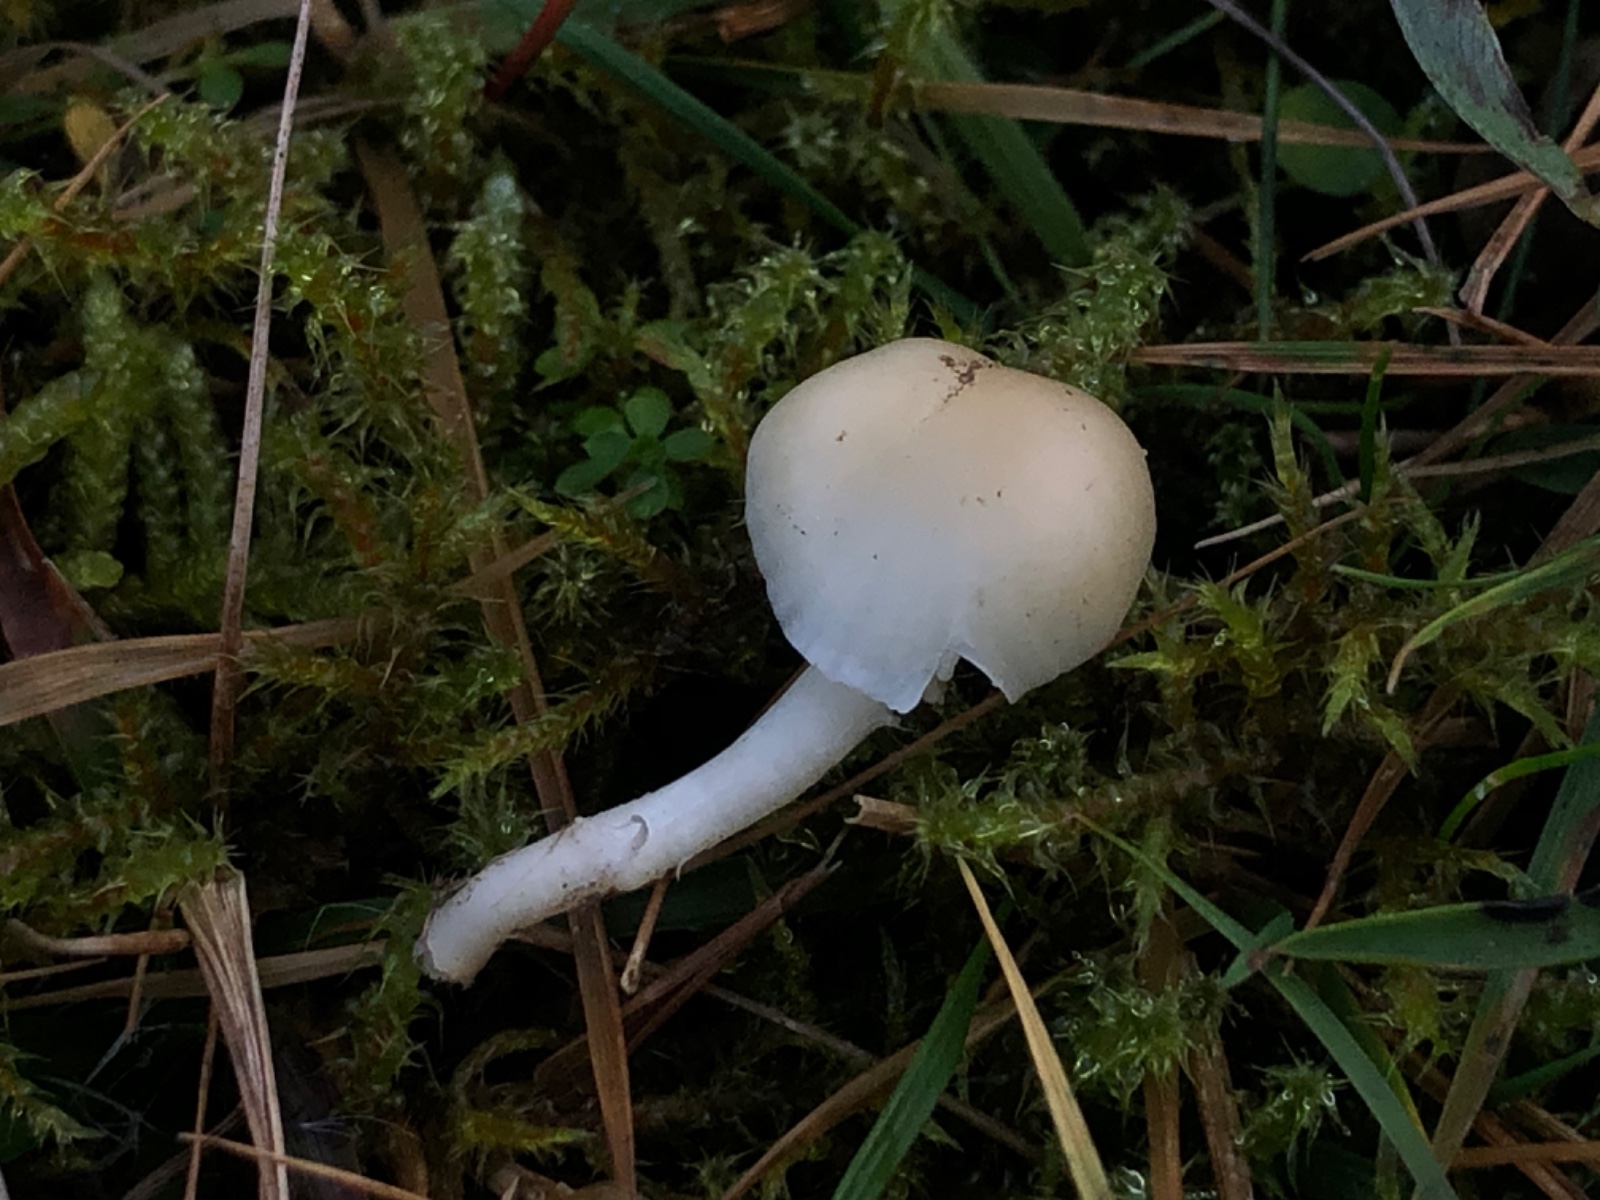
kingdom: Fungi
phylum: Basidiomycota
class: Agaricomycetes
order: Agaricales
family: Hygrophoraceae
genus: Cuphophyllus
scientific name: Cuphophyllus russocoriaceus
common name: ruslæder-vokshat
